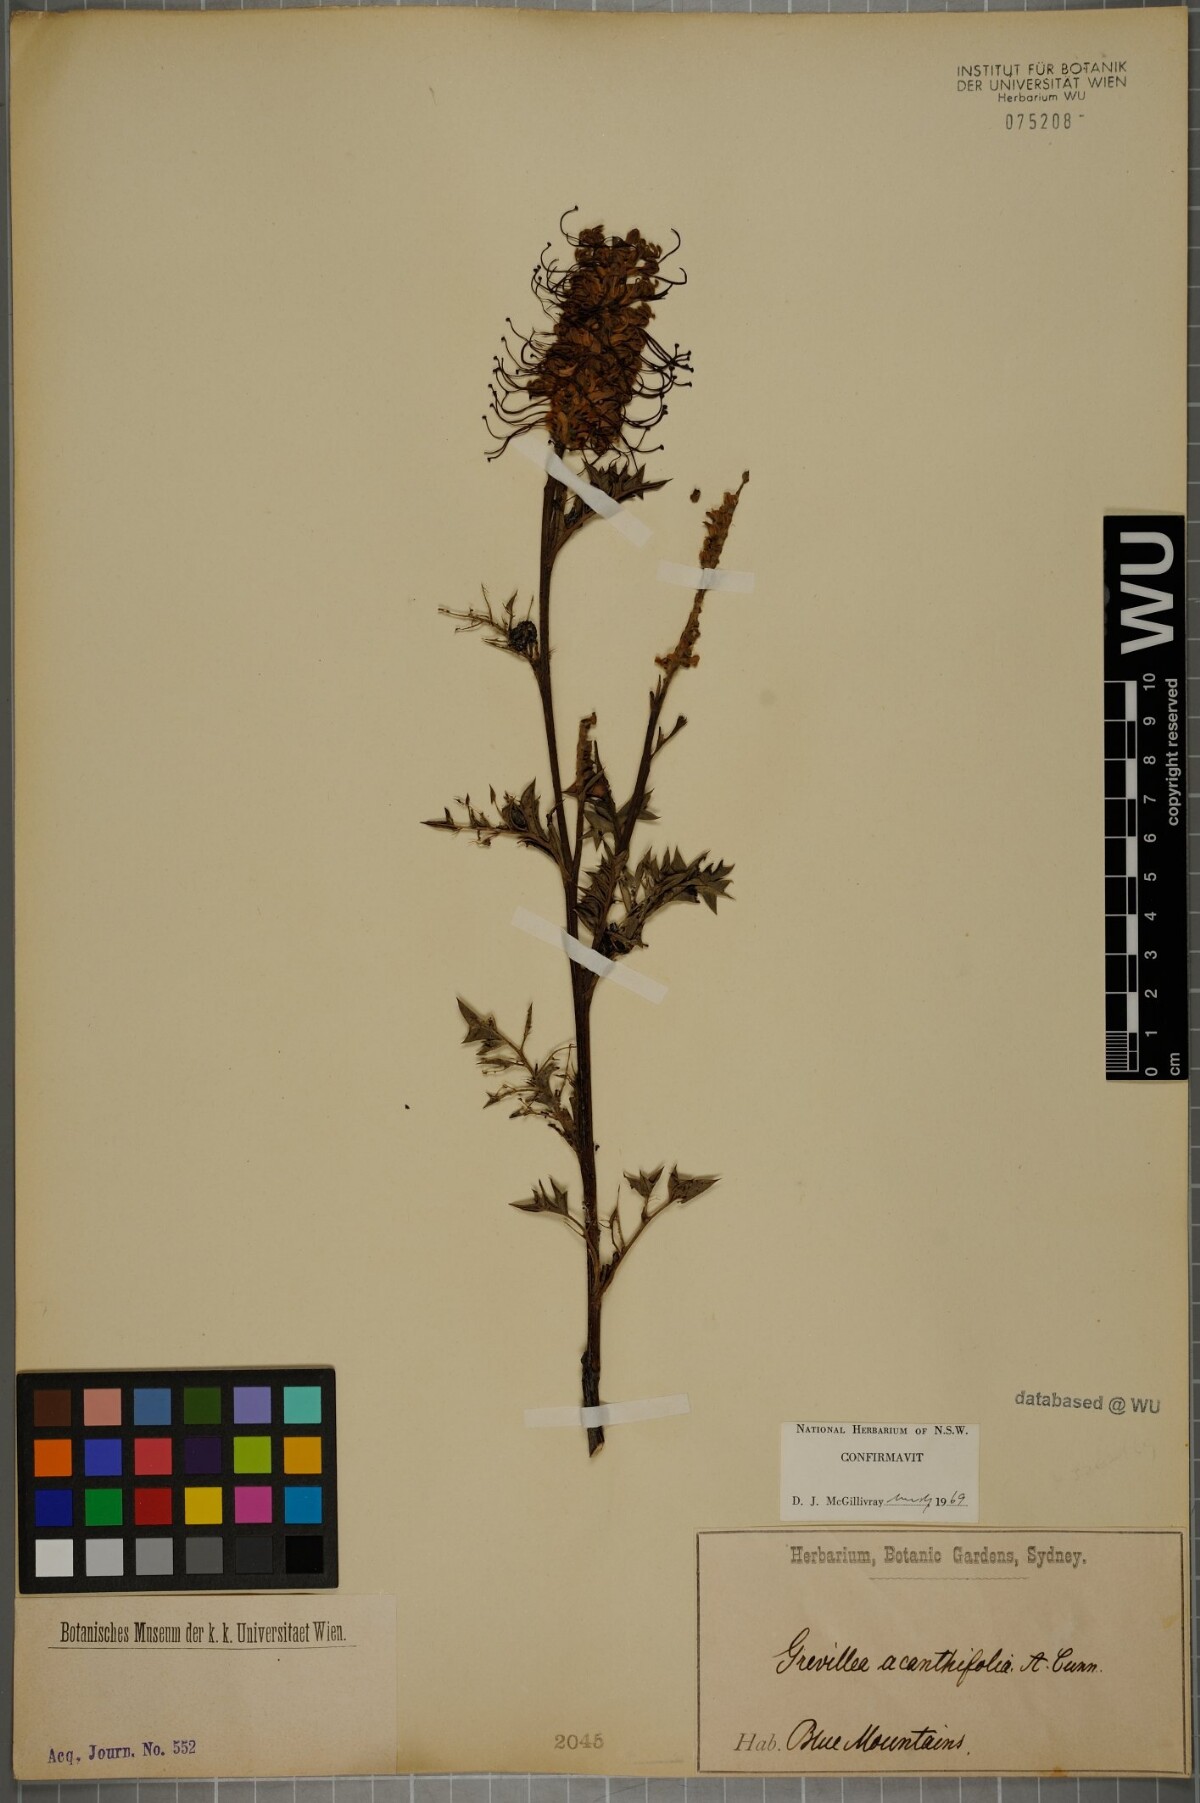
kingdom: Plantae
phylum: Tracheophyta
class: Magnoliopsida
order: Proteales
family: Proteaceae
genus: Grevillea
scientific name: Grevillea acanthifolia
